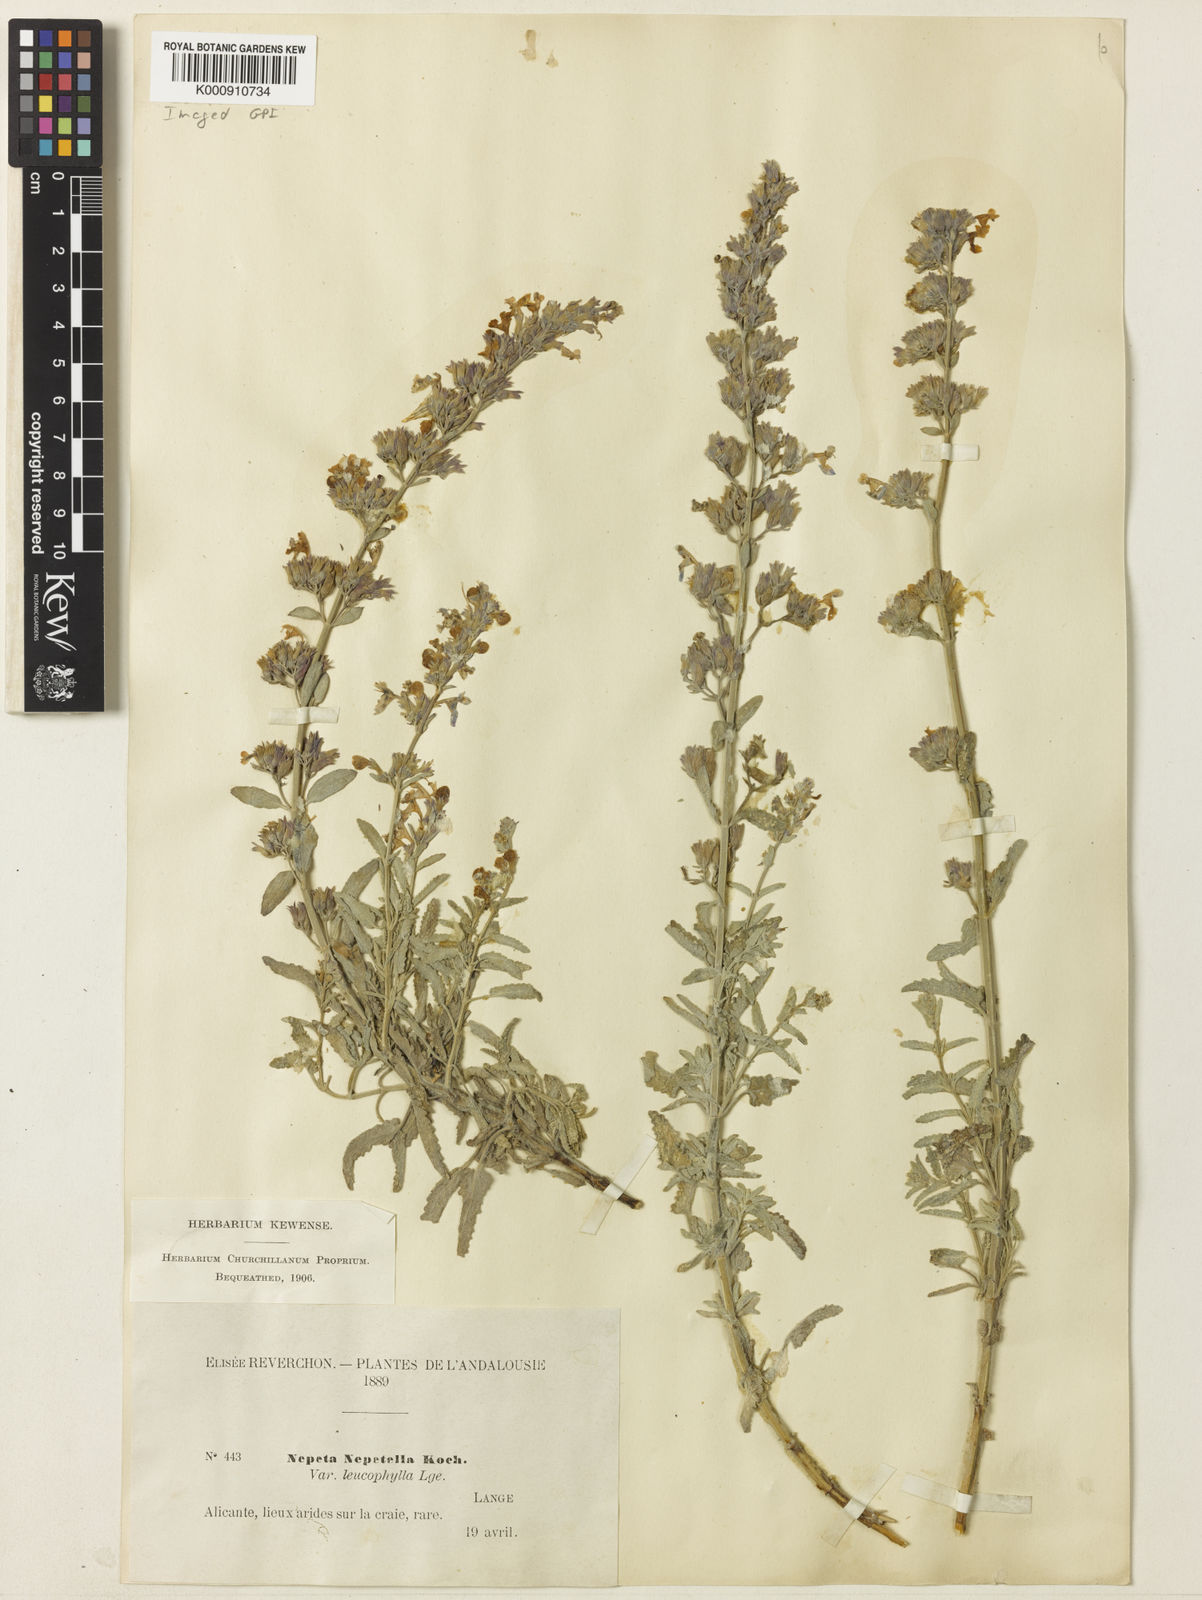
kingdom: Plantae
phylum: Tracheophyta
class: Magnoliopsida
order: Lamiales
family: Lamiaceae
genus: Nepeta
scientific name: Nepeta nepetella
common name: Lesser catmint
